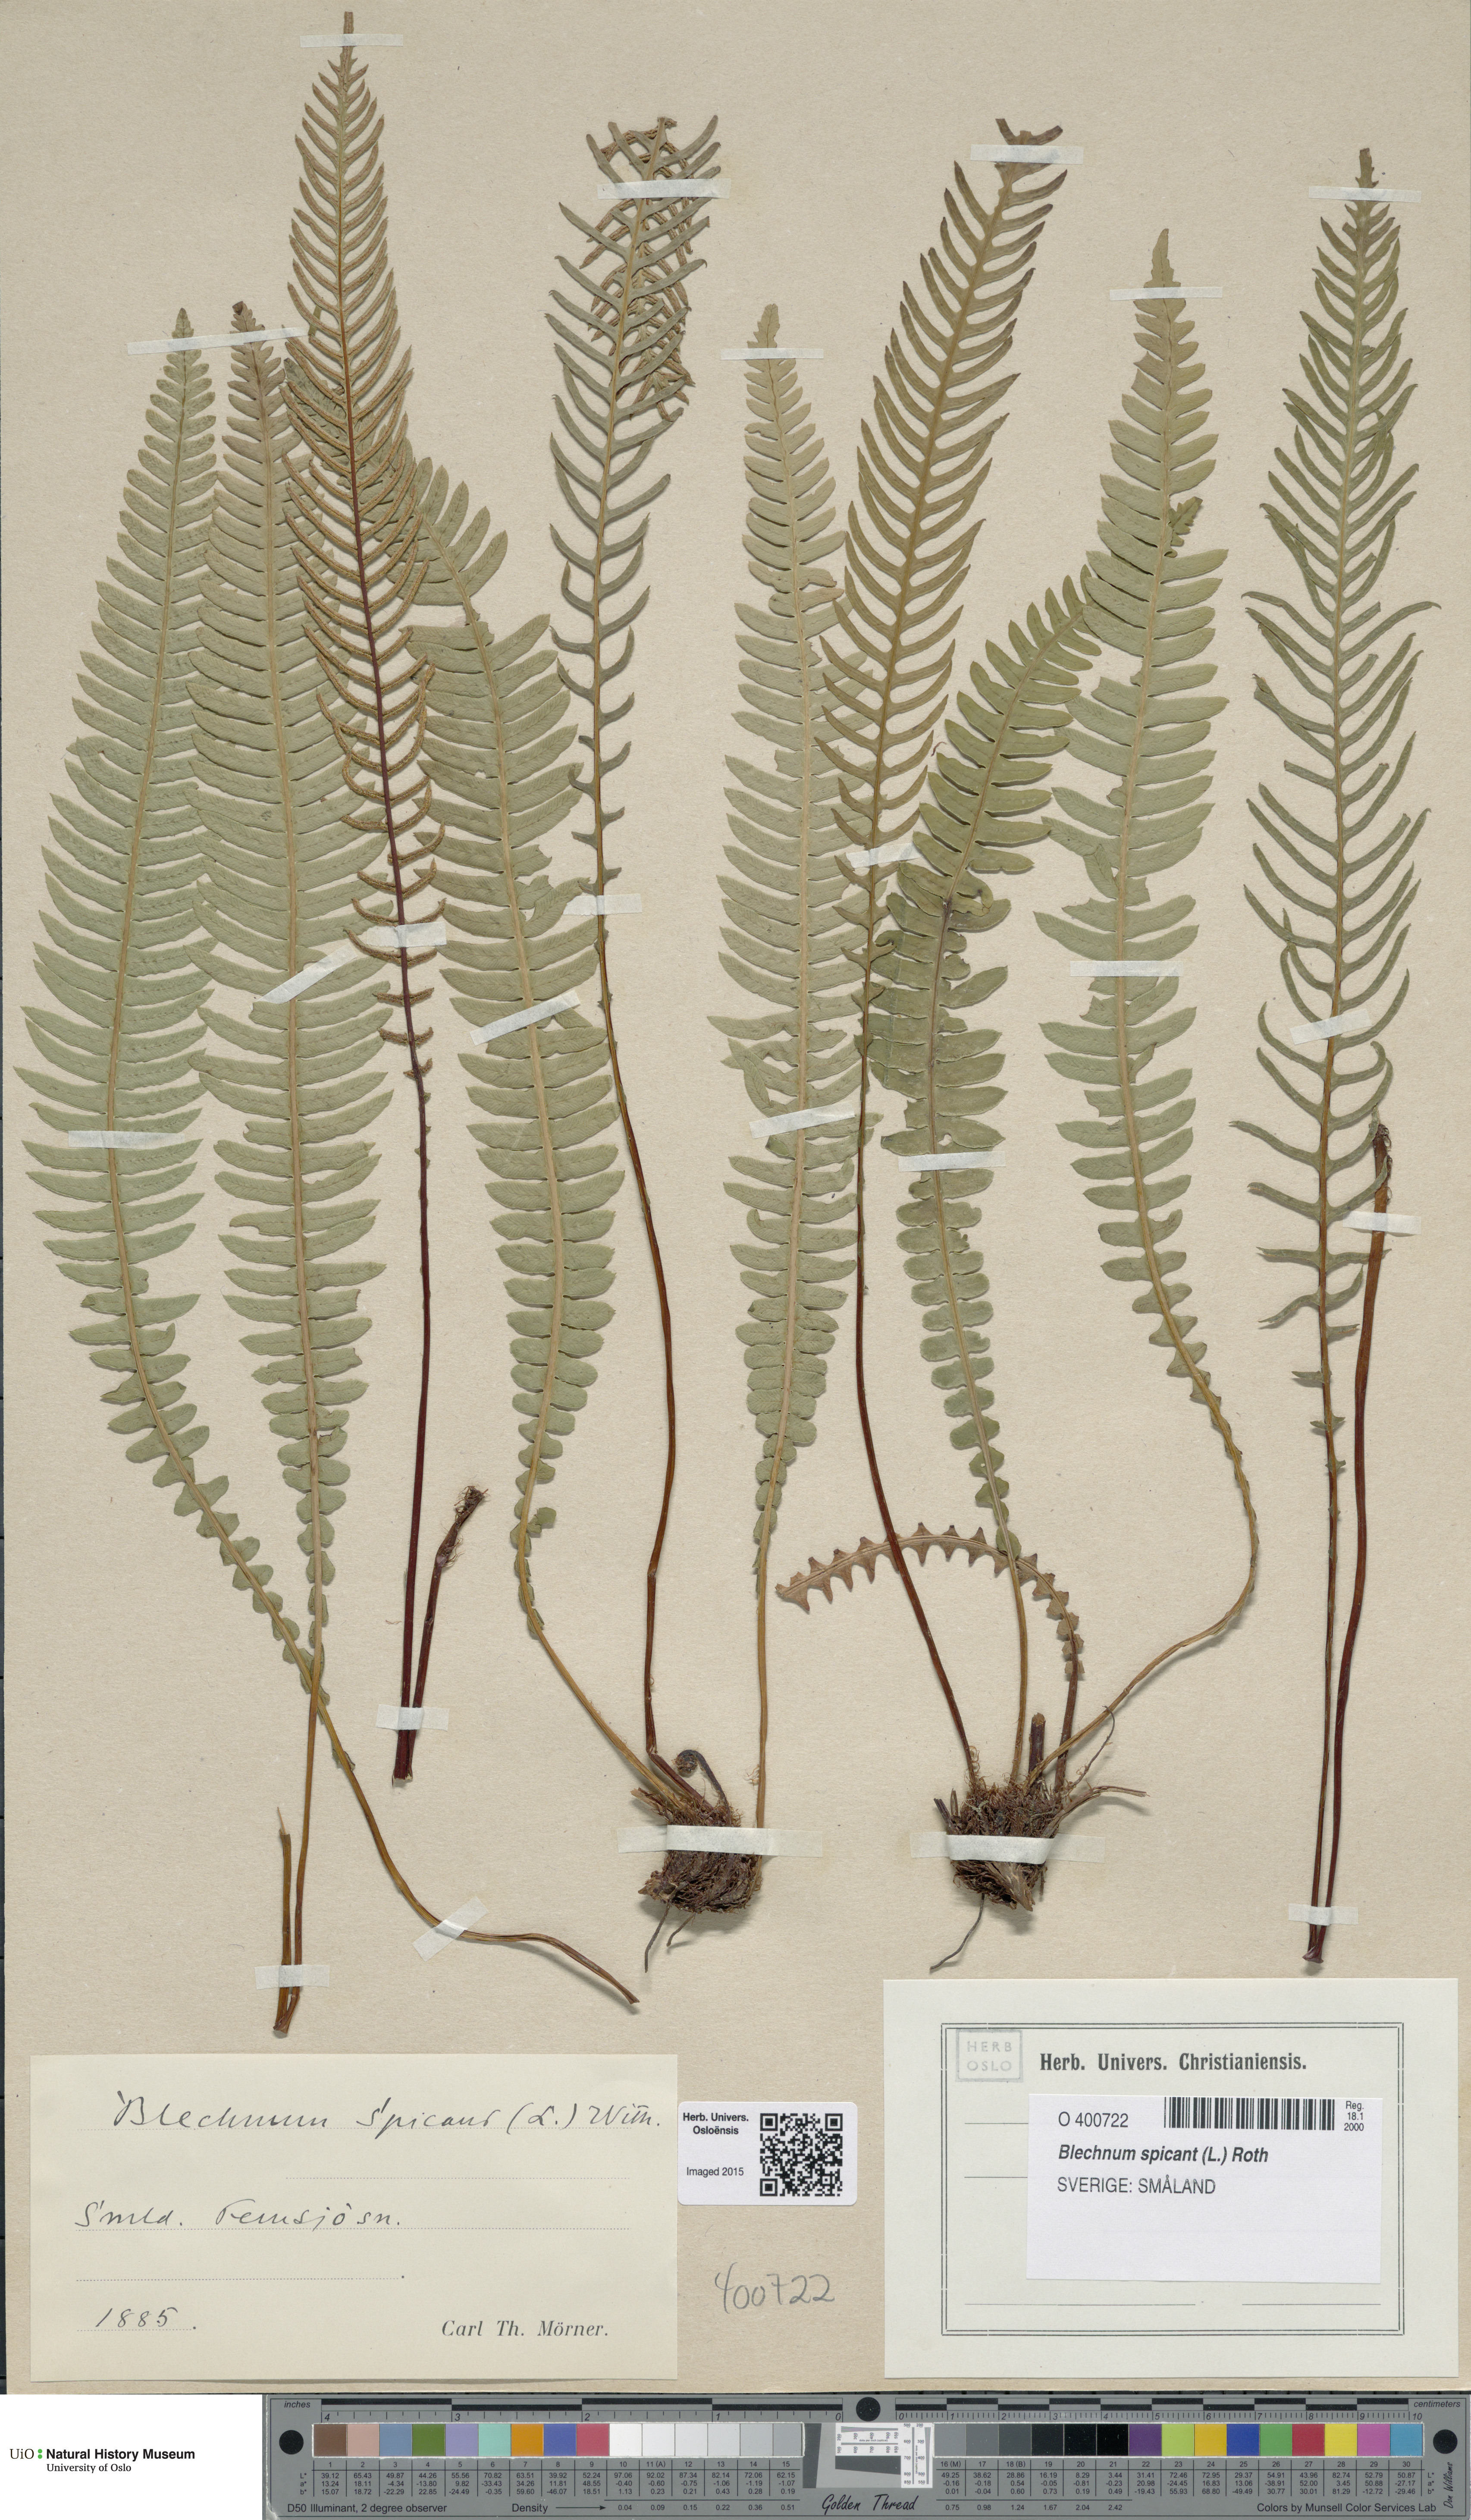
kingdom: Plantae
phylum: Tracheophyta
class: Polypodiopsida
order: Polypodiales
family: Blechnaceae
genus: Struthiopteris
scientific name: Struthiopteris spicant
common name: Deer fern
